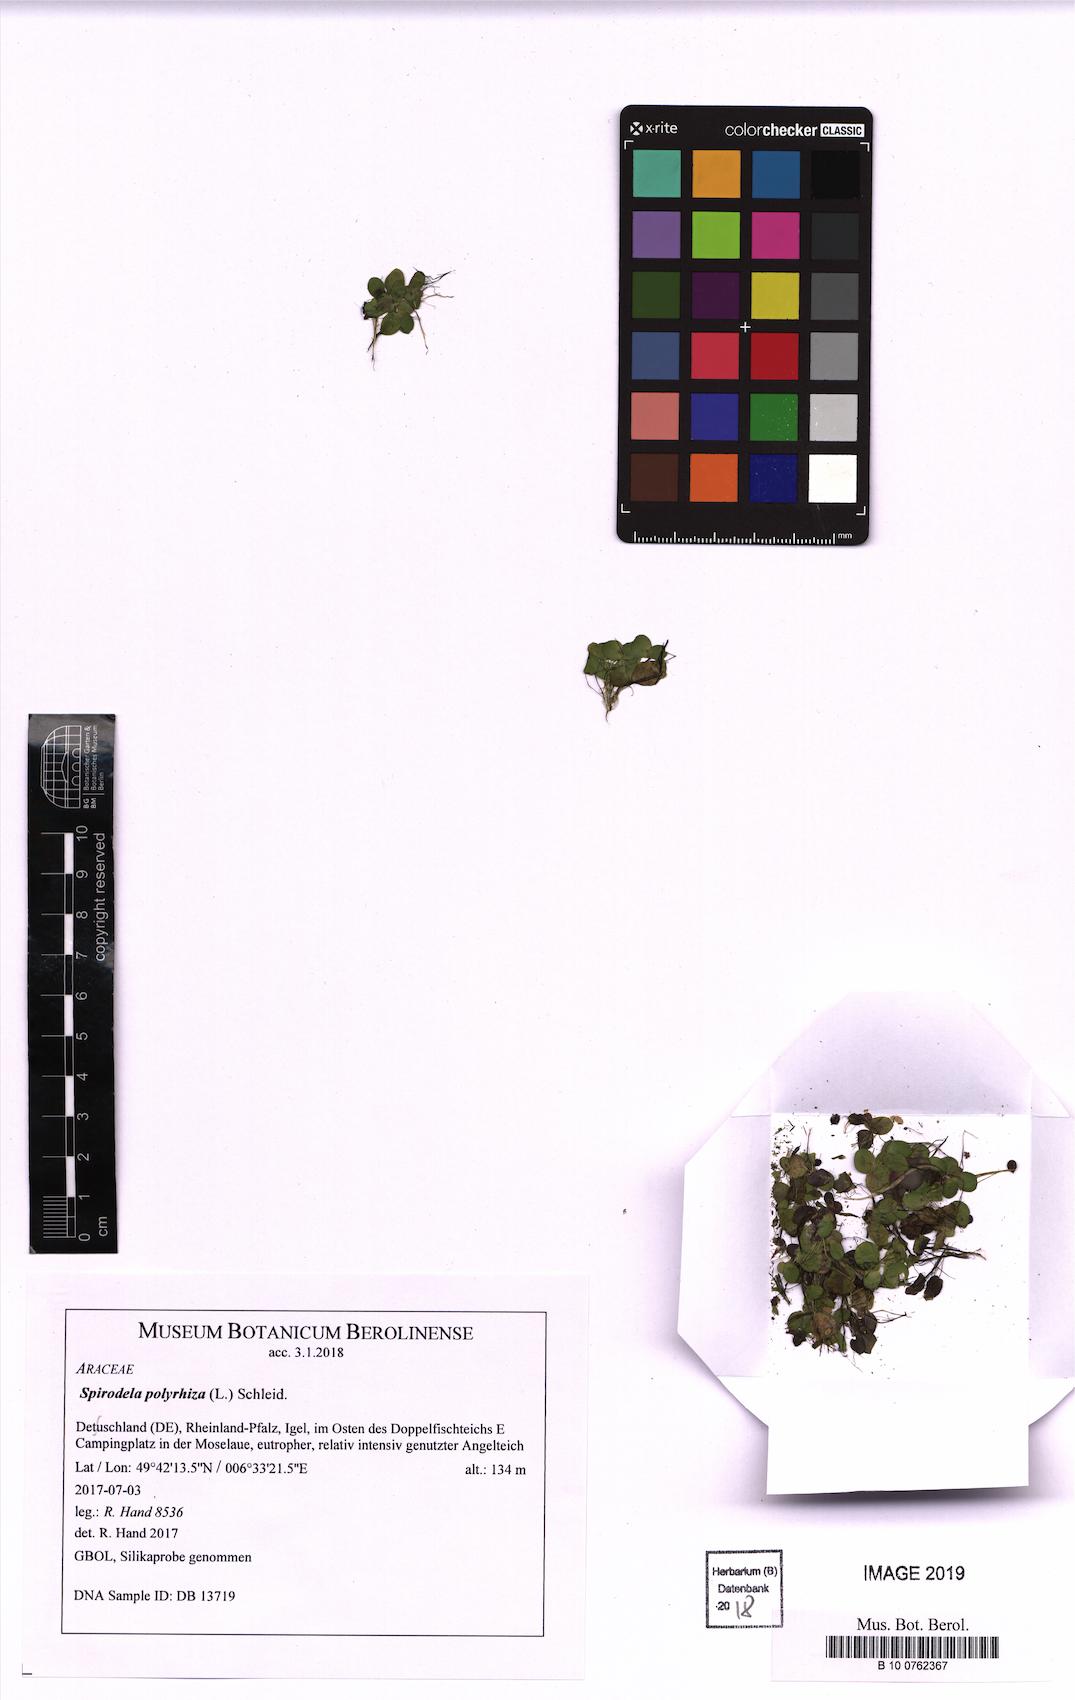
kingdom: Plantae
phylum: Tracheophyta
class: Liliopsida
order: Alismatales
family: Araceae
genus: Spirodela
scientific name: Spirodela polyrhiza
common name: Great duckweed
